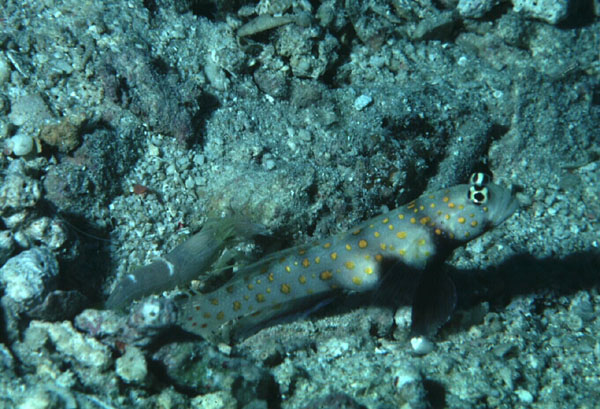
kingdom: Animalia
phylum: Chordata
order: Perciformes
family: Gobiidae
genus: Amblyeleotris
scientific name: Amblyeleotris guttata
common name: Black-chest shrimp-goby
